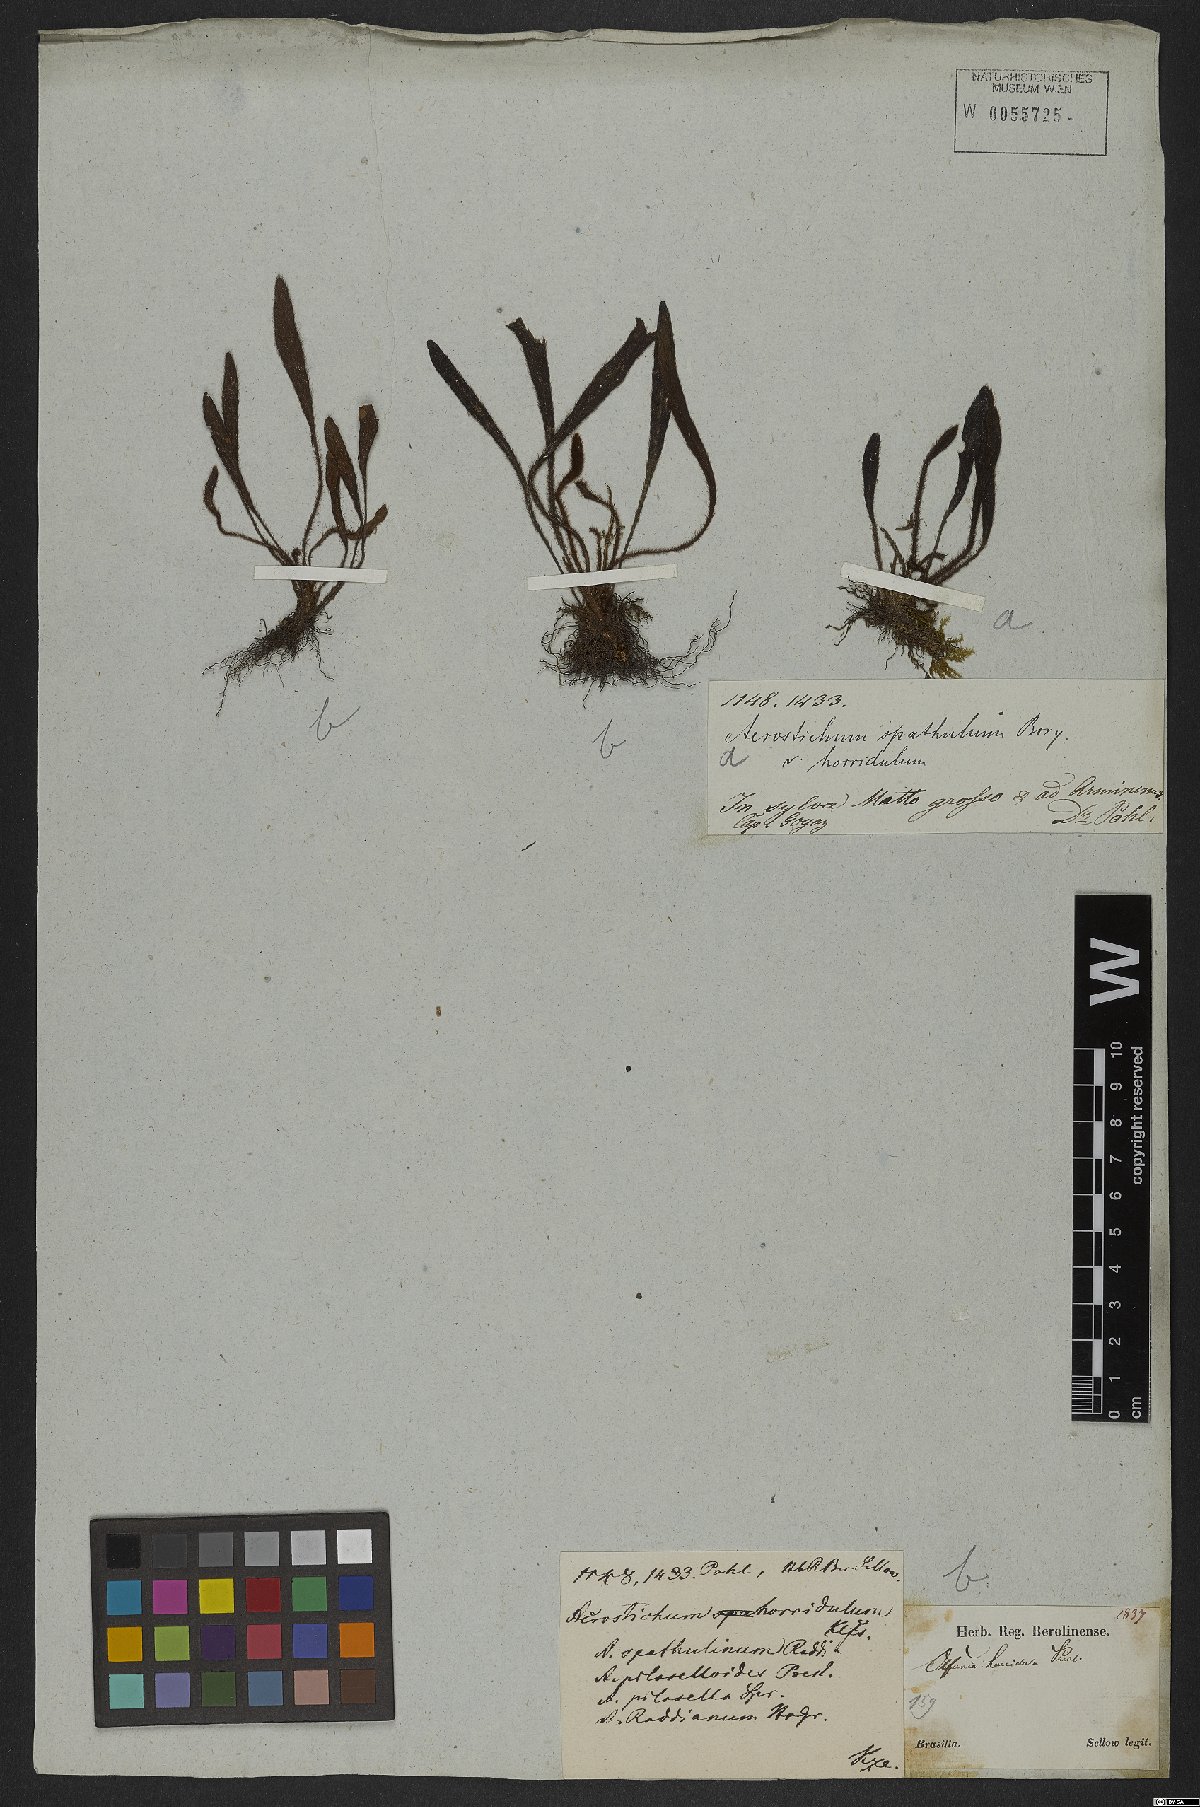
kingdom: Plantae
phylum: Tracheophyta
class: Polypodiopsida
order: Polypodiales
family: Dryopteridaceae
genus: Elaphoglossum
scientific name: Elaphoglossum spatulatum
